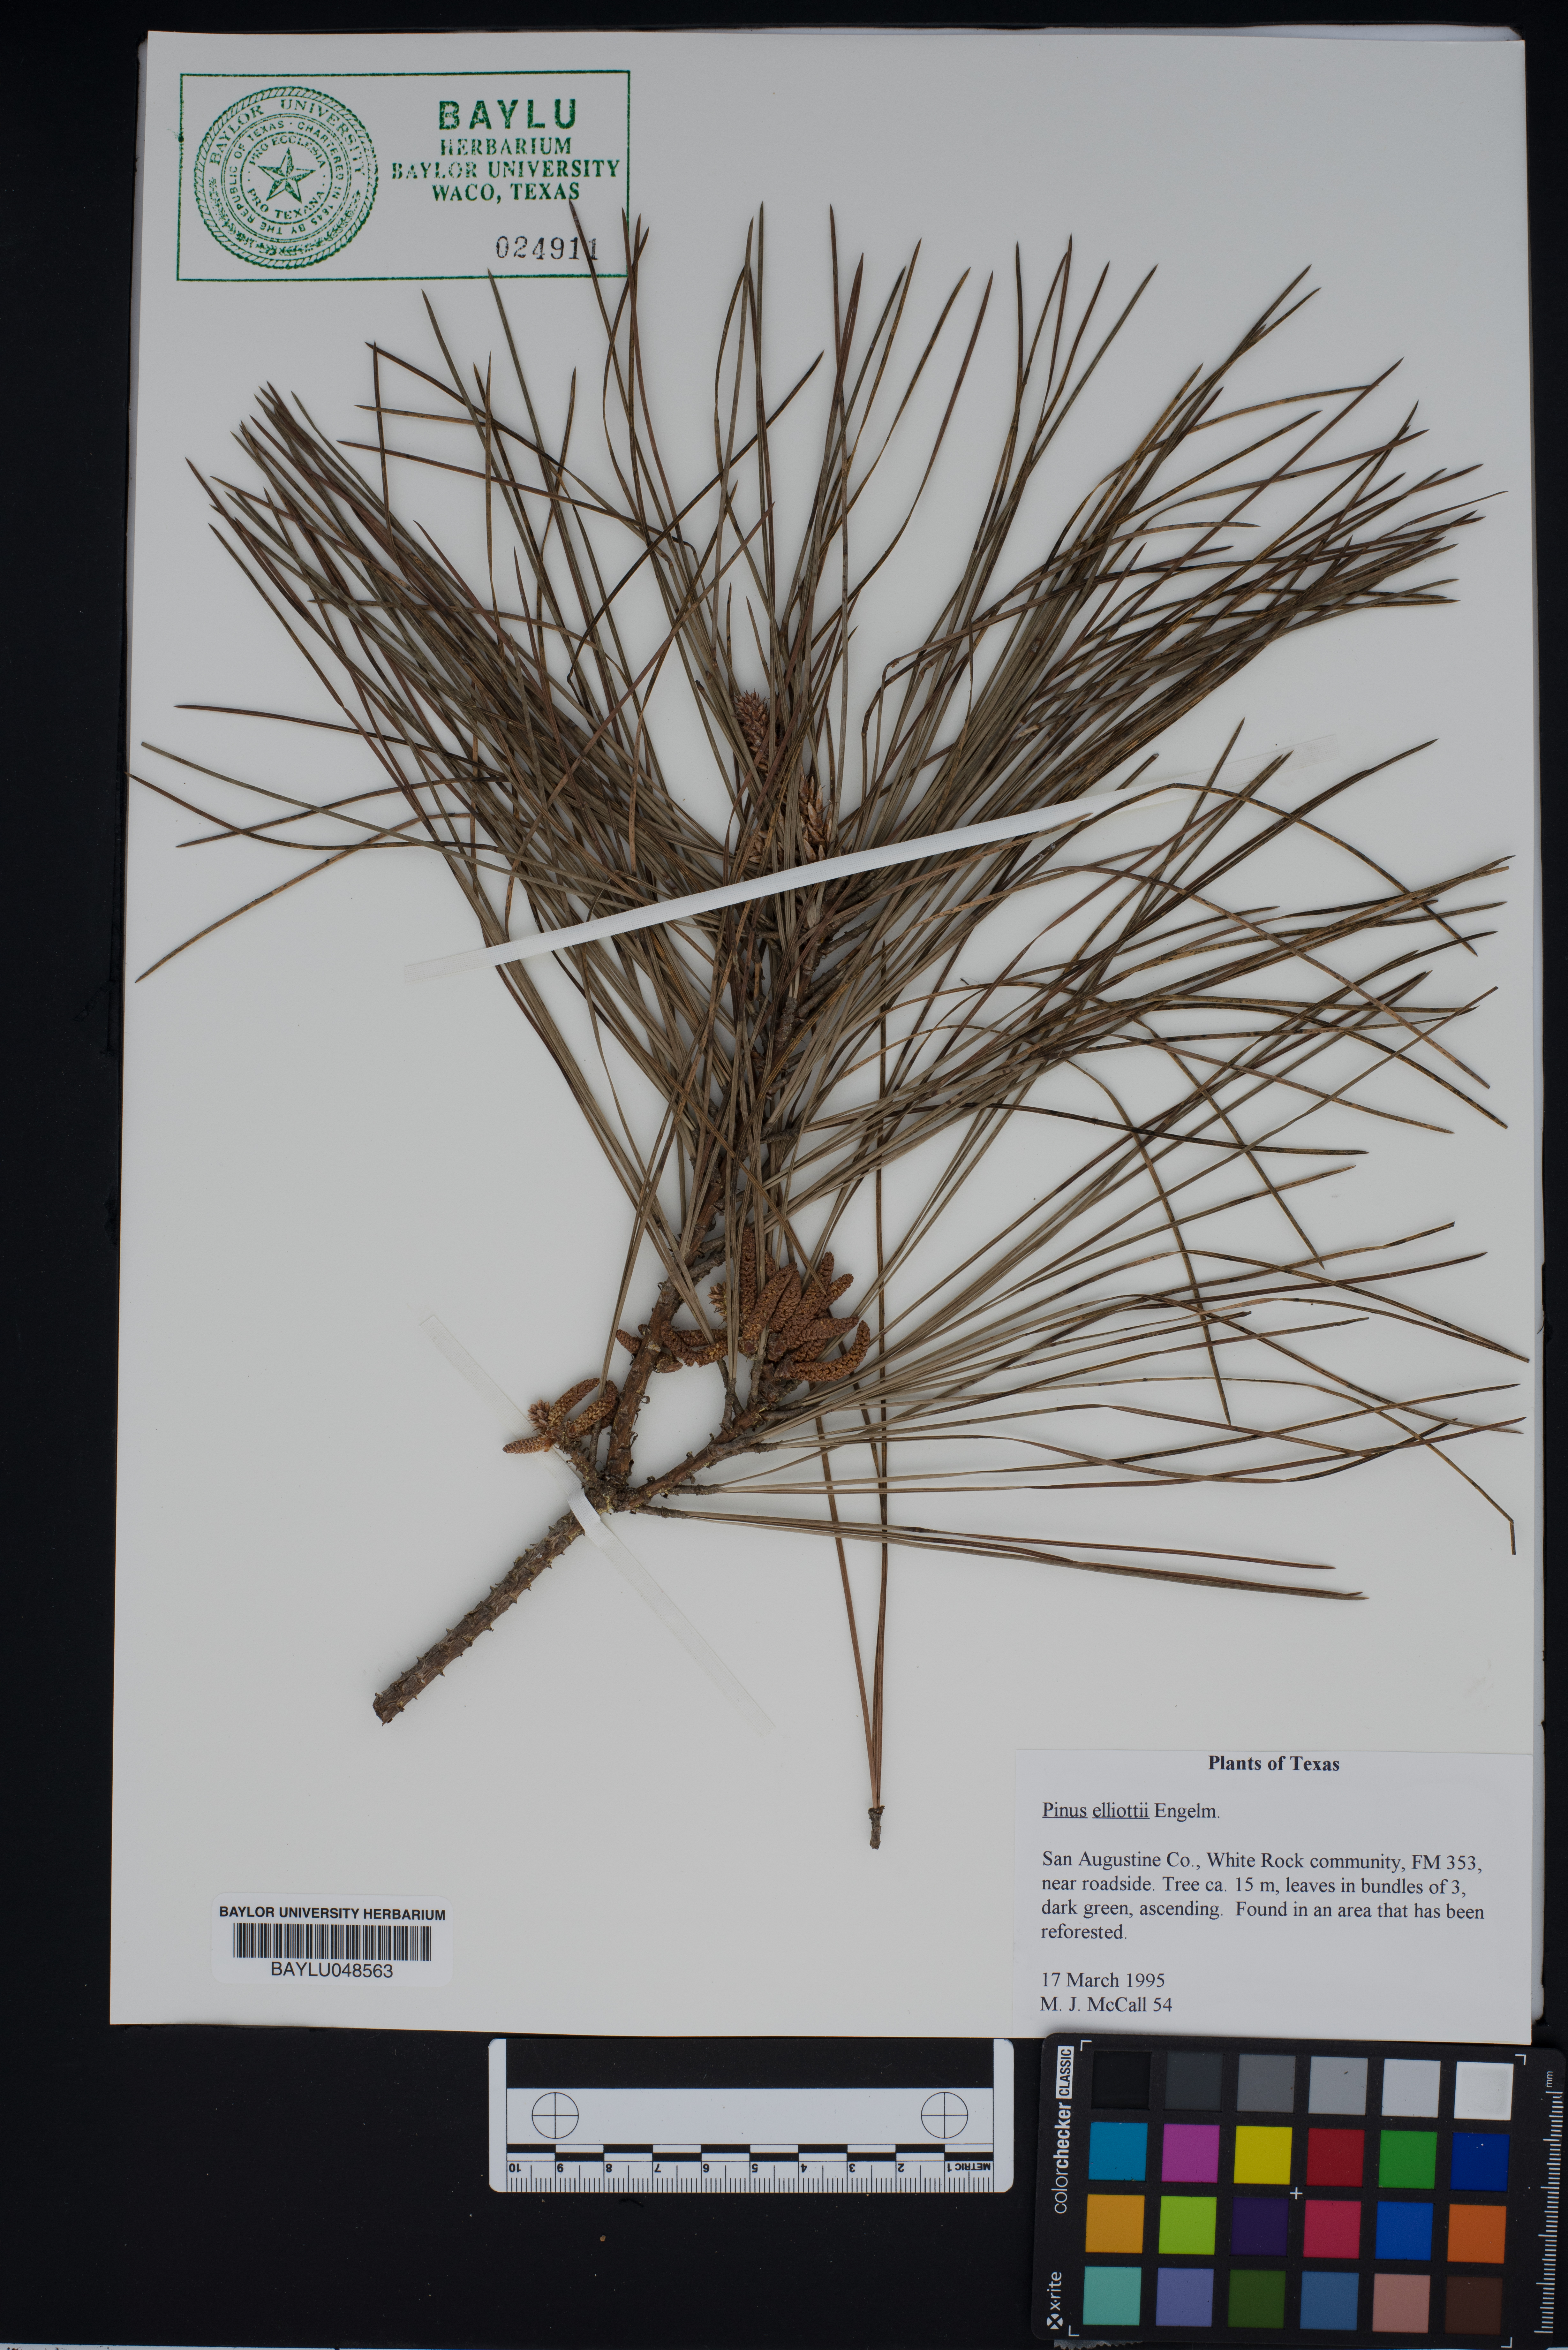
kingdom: Plantae
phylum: Tracheophyta
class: Pinopsida
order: Pinales
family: Pinaceae
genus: Pinus
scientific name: Pinus elliottii
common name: Slash pine
